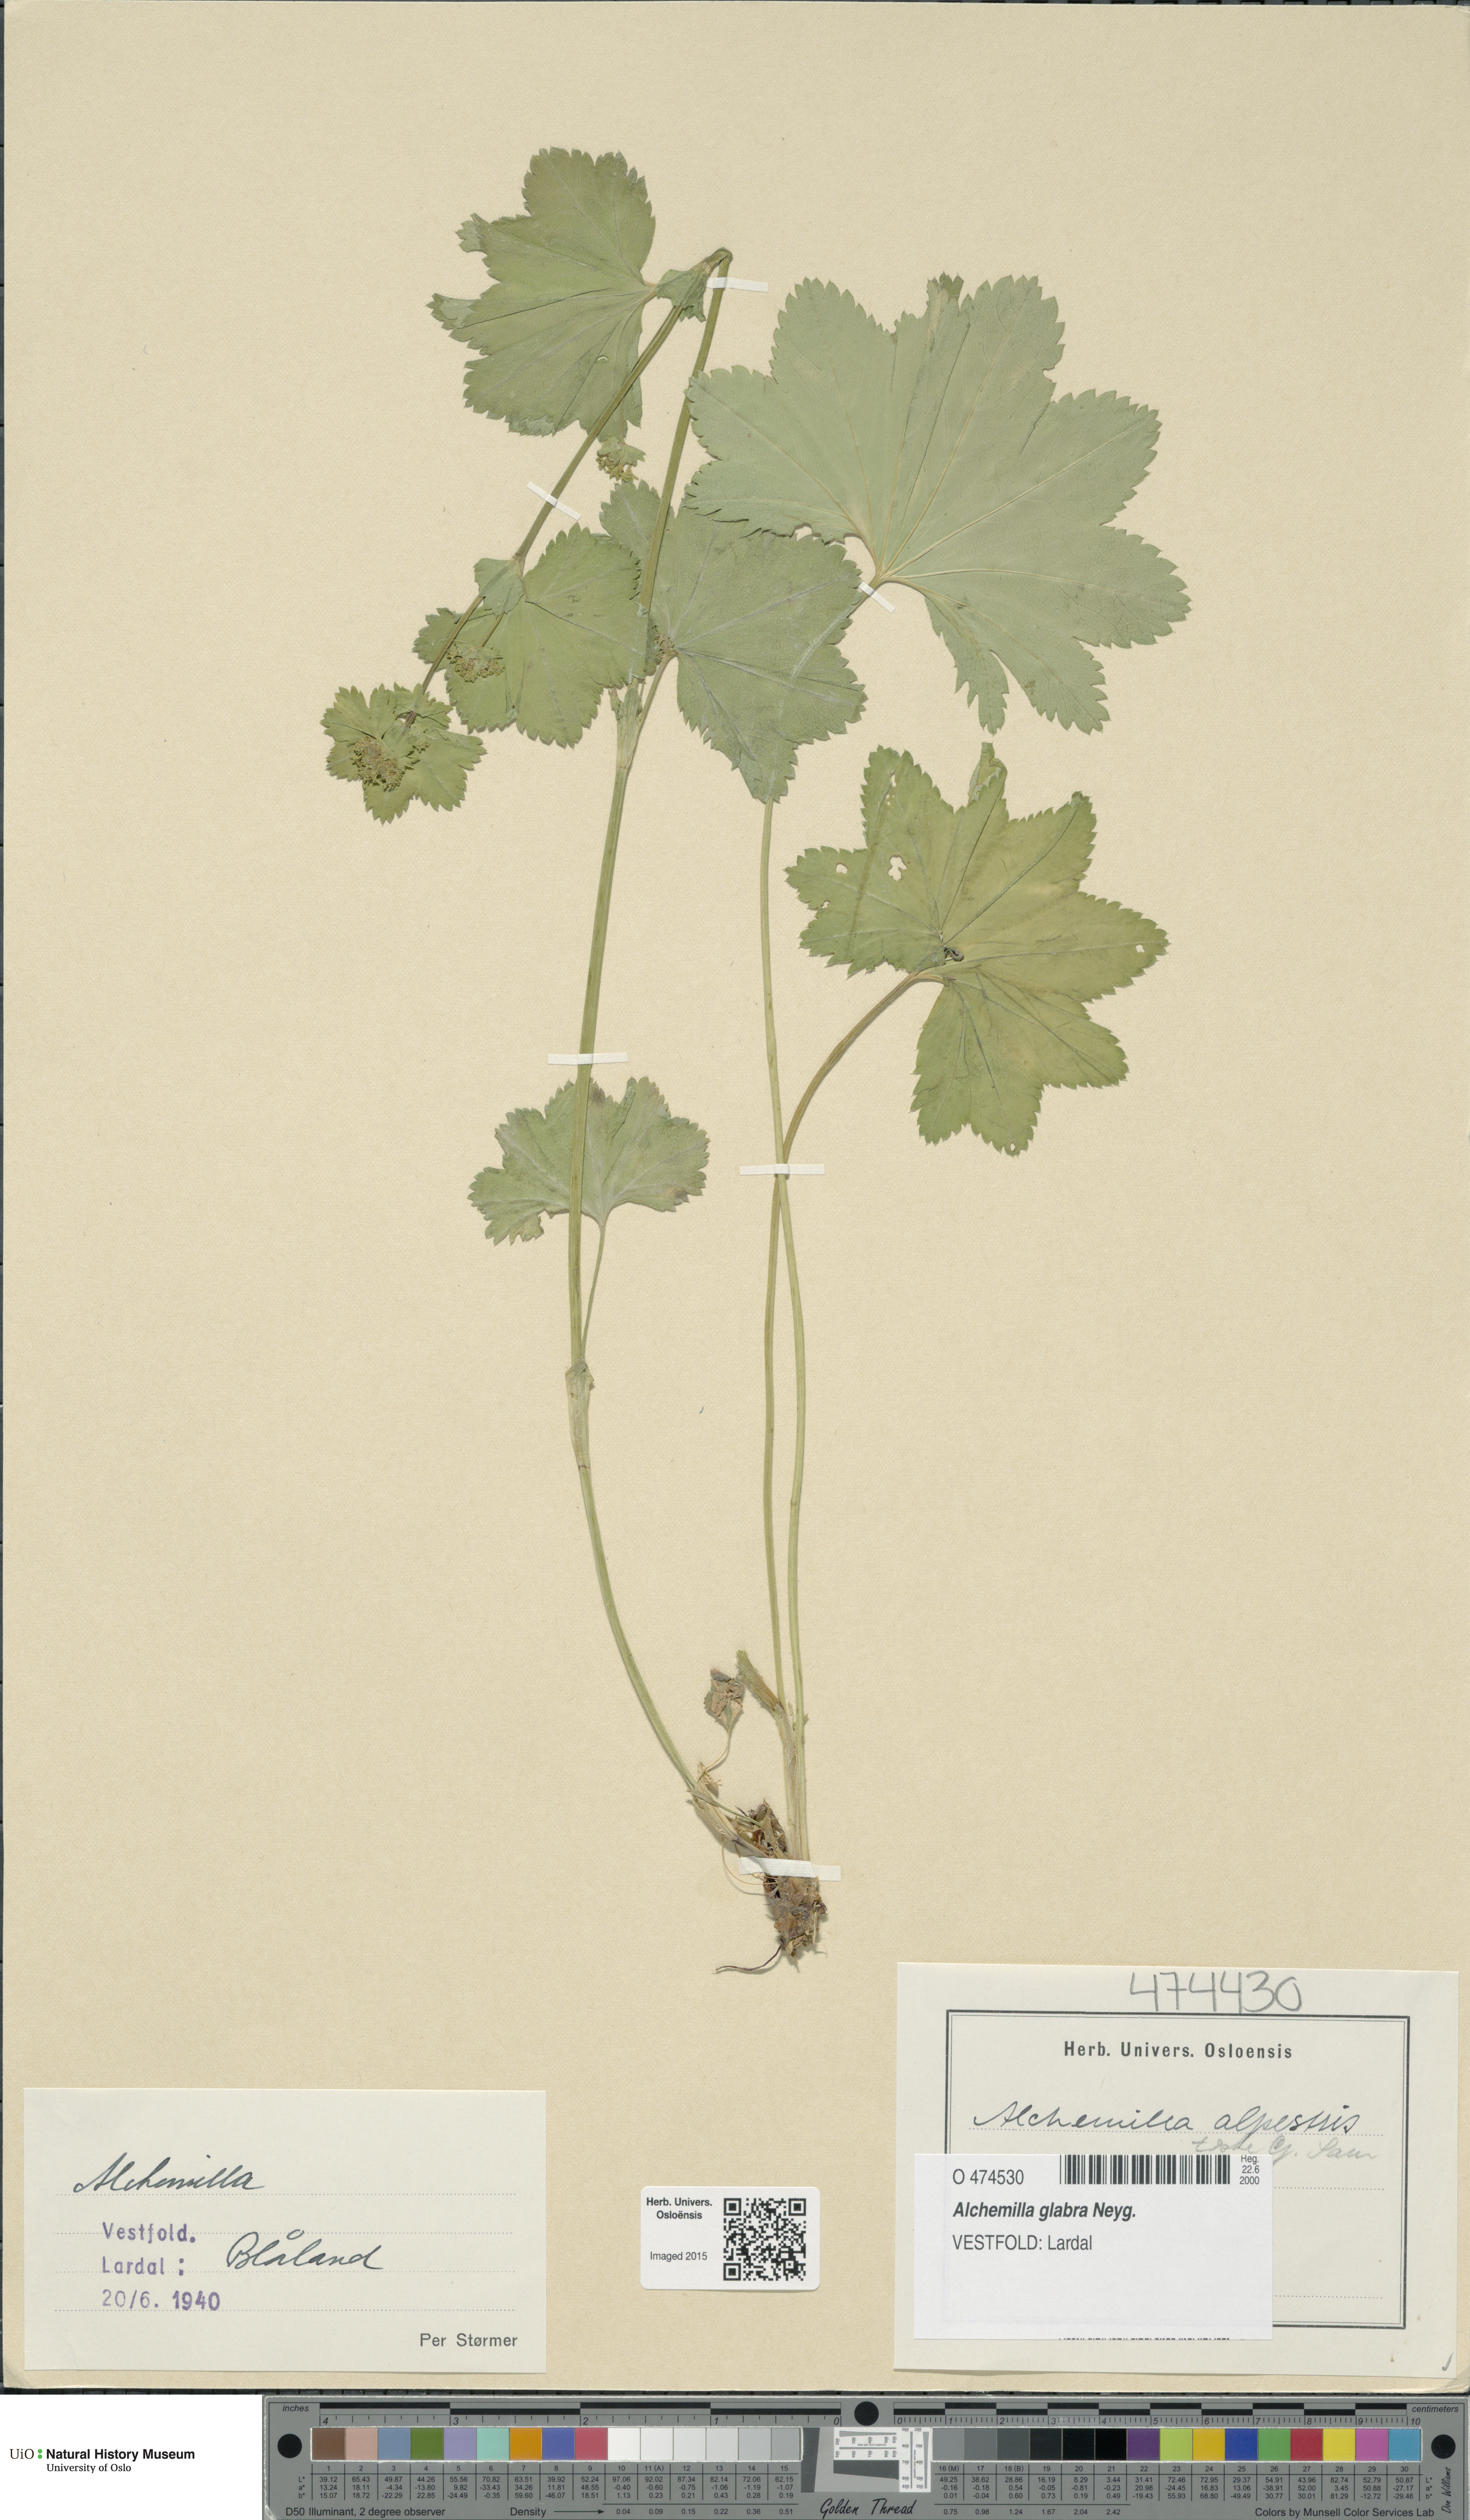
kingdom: Plantae
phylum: Tracheophyta
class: Magnoliopsida
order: Rosales
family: Rosaceae
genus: Alchemilla
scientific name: Alchemilla glabra
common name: Smooth lady's-mantle
